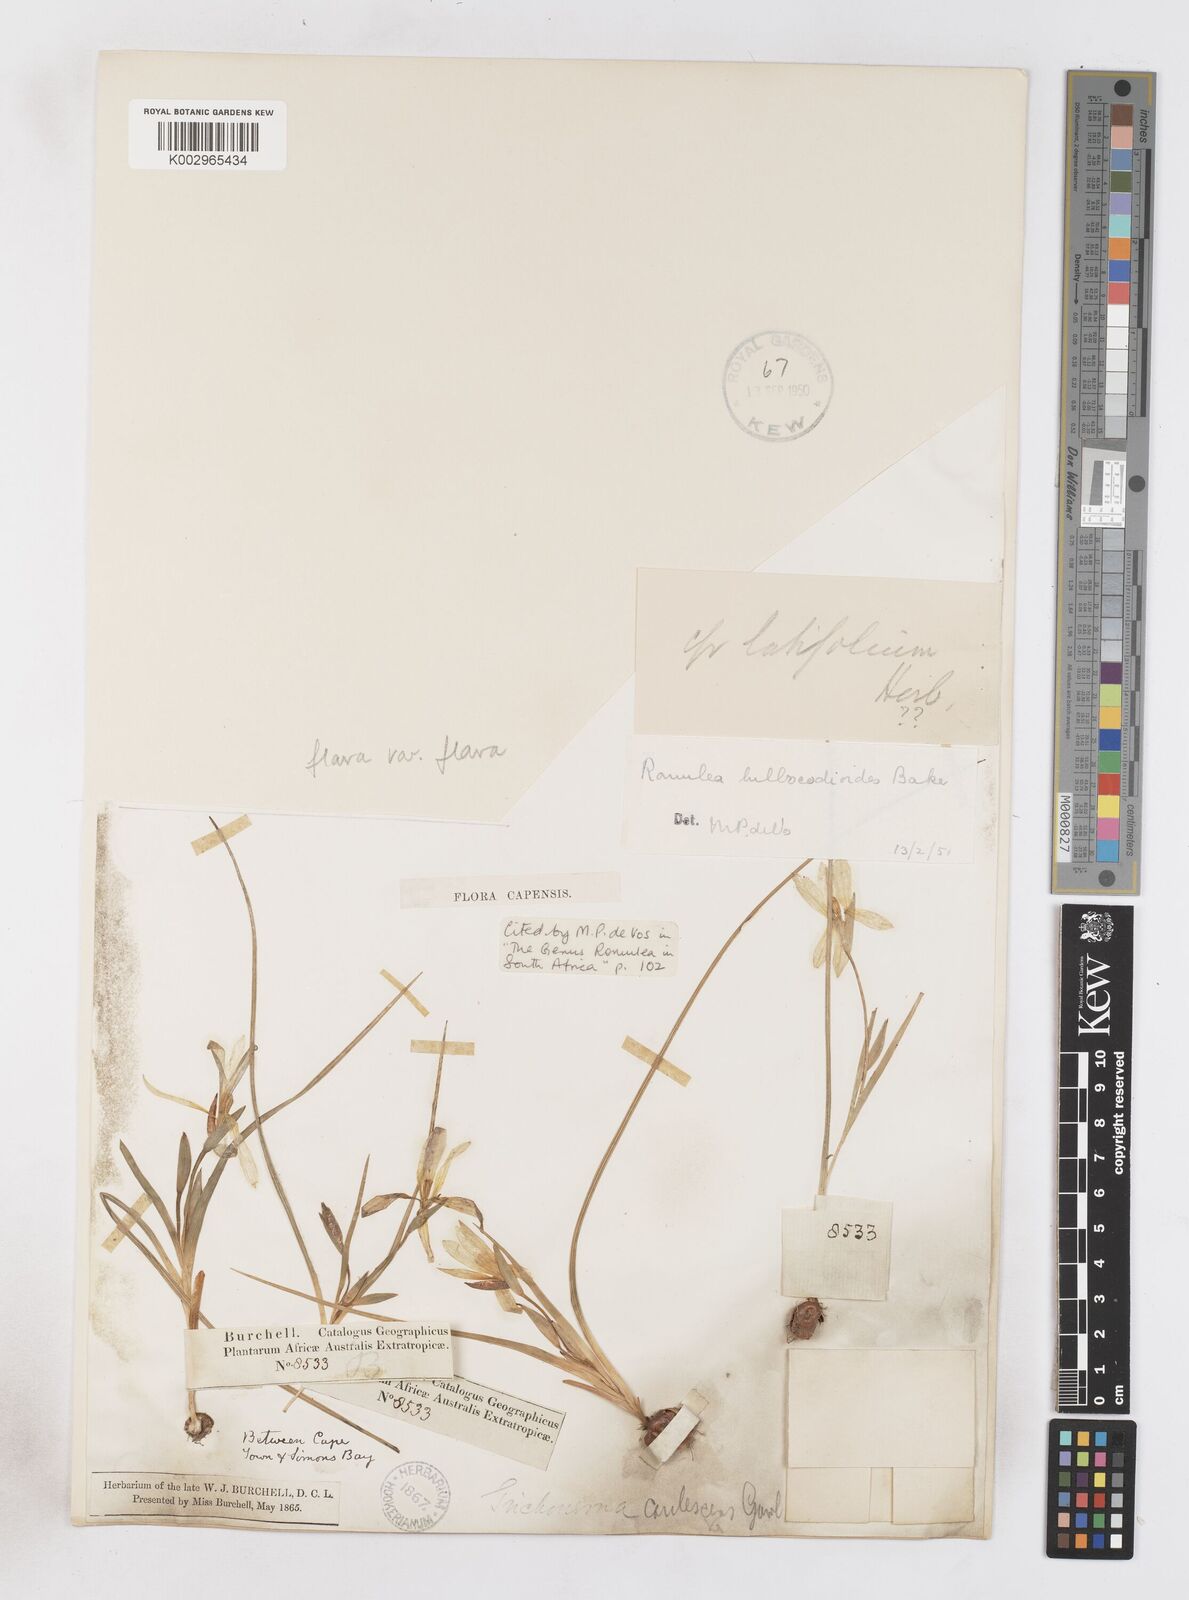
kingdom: Plantae
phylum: Tracheophyta
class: Liliopsida
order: Asparagales
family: Iridaceae
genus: Romulea
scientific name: Romulea flava
